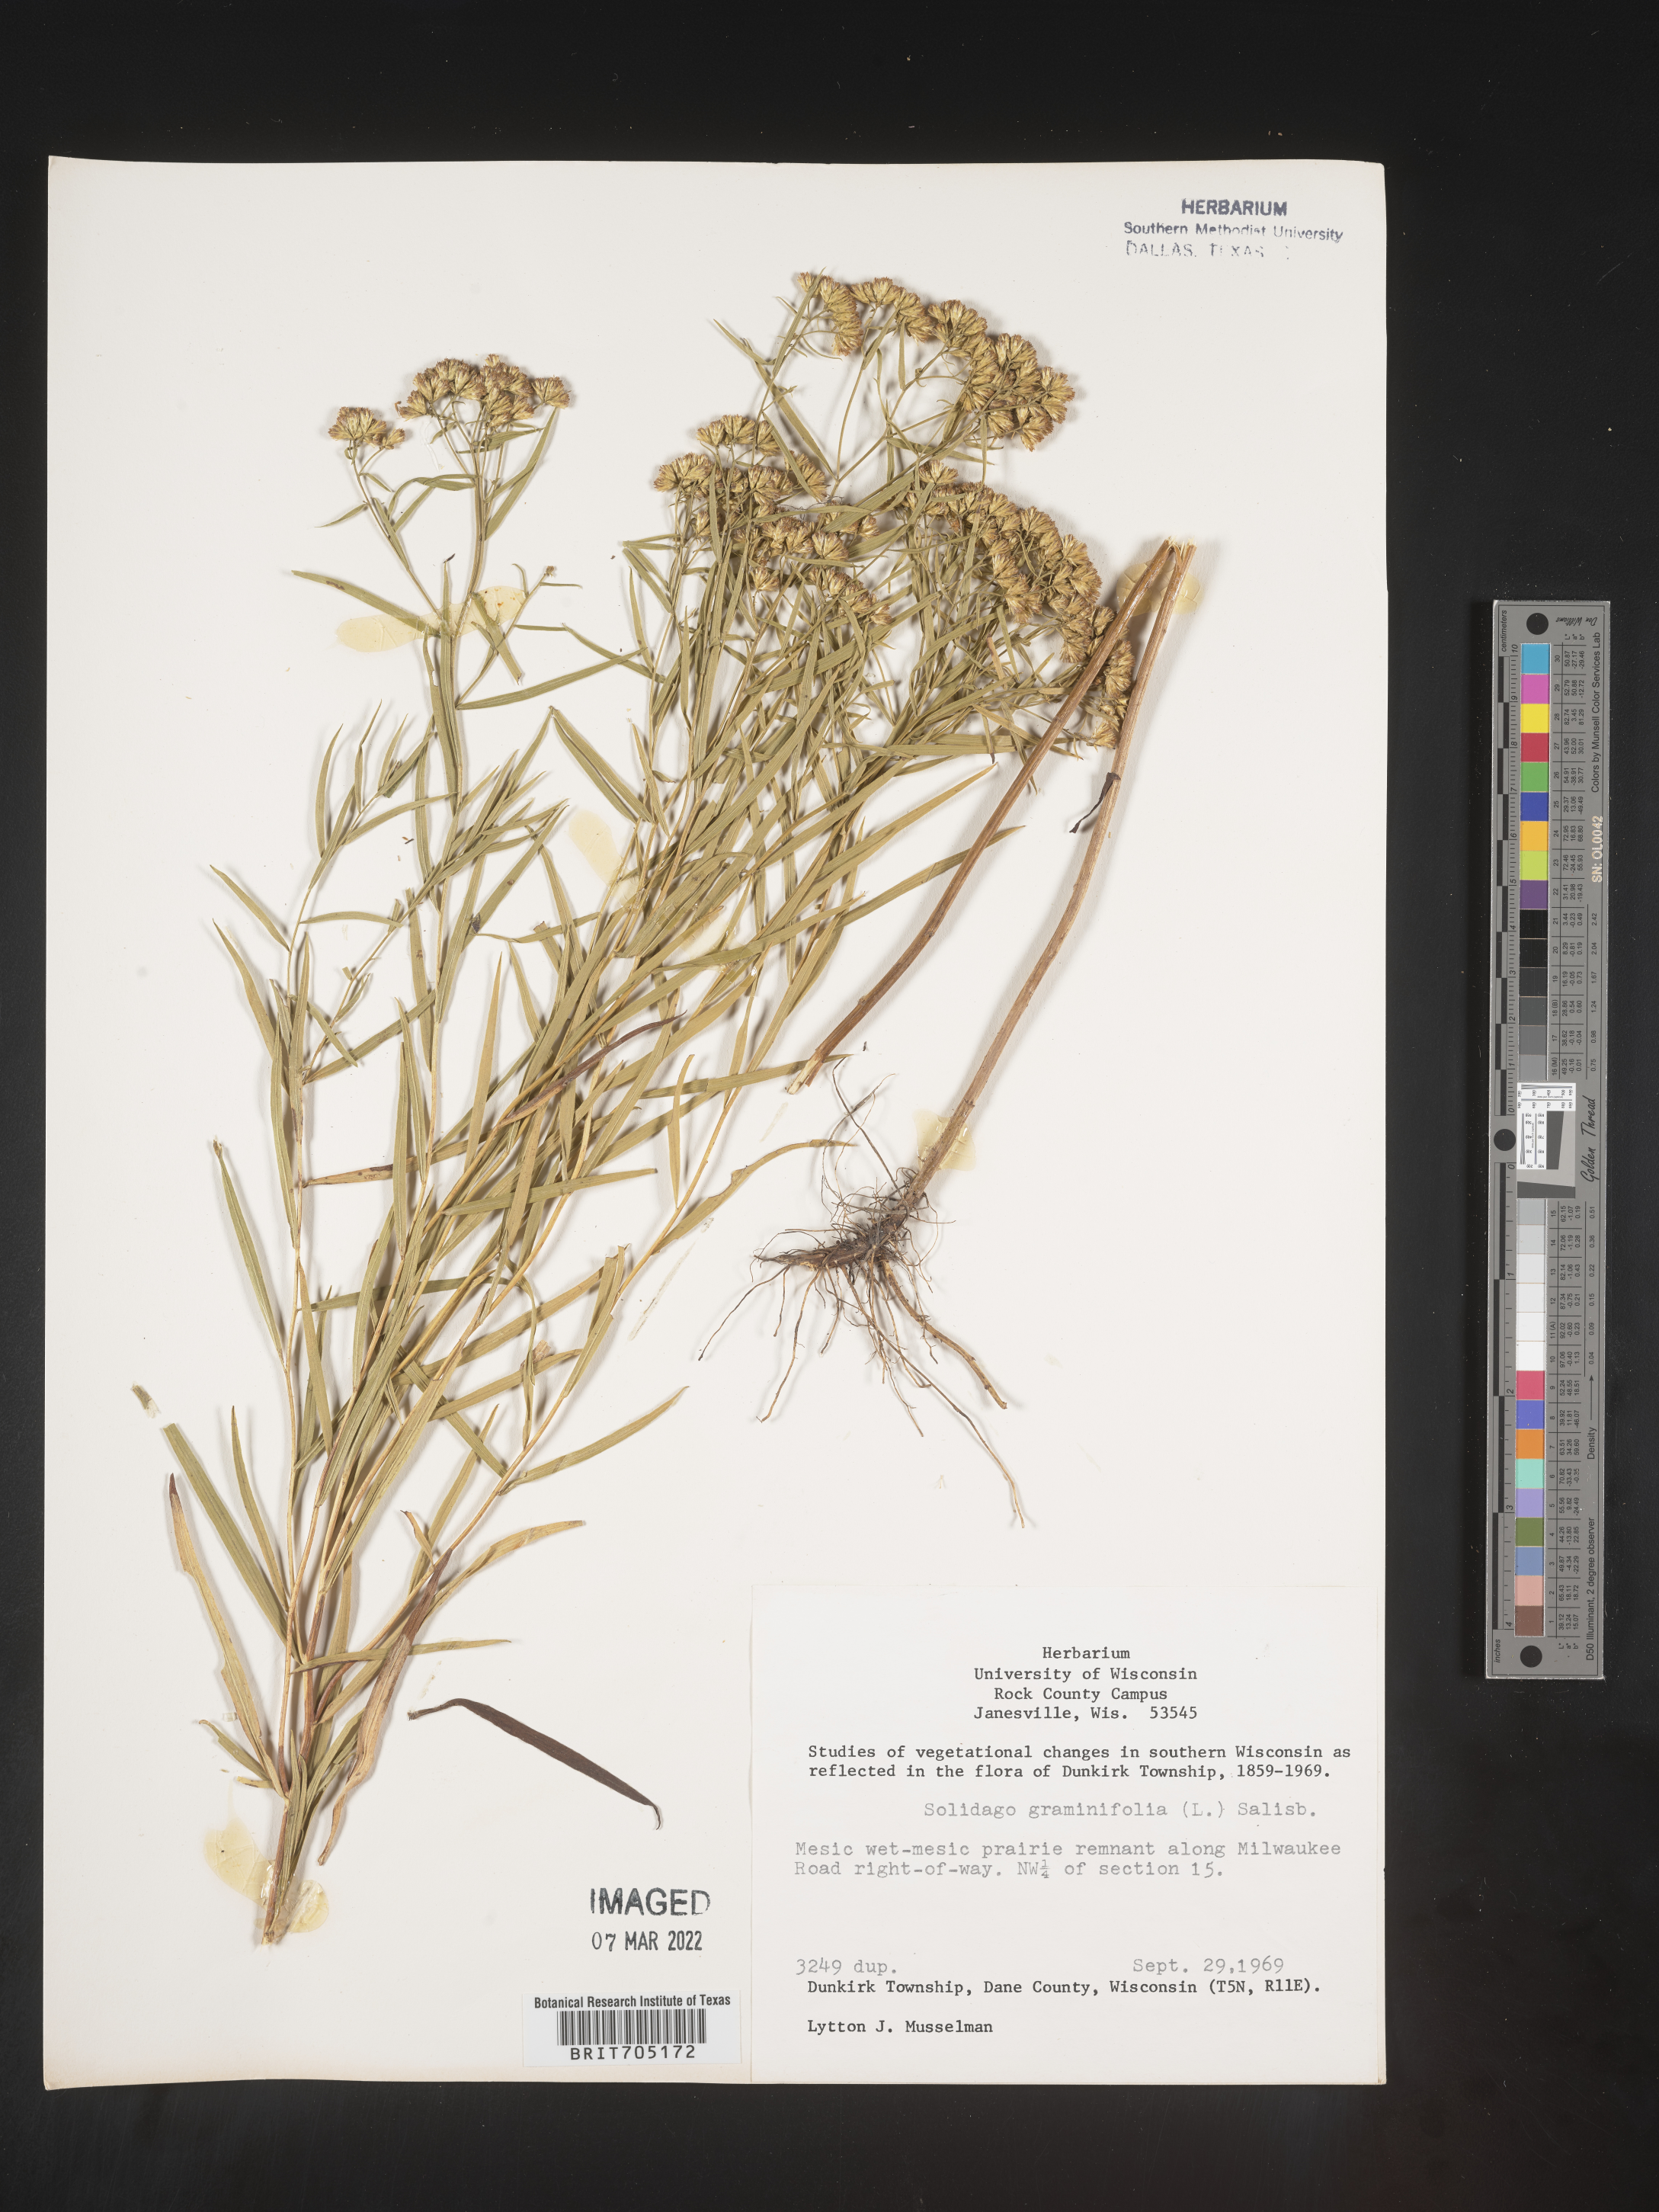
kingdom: Plantae
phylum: Tracheophyta
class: Magnoliopsida
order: Asterales
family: Asteraceae
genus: Euthamia
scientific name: Euthamia graminifolia
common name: Common goldentop
